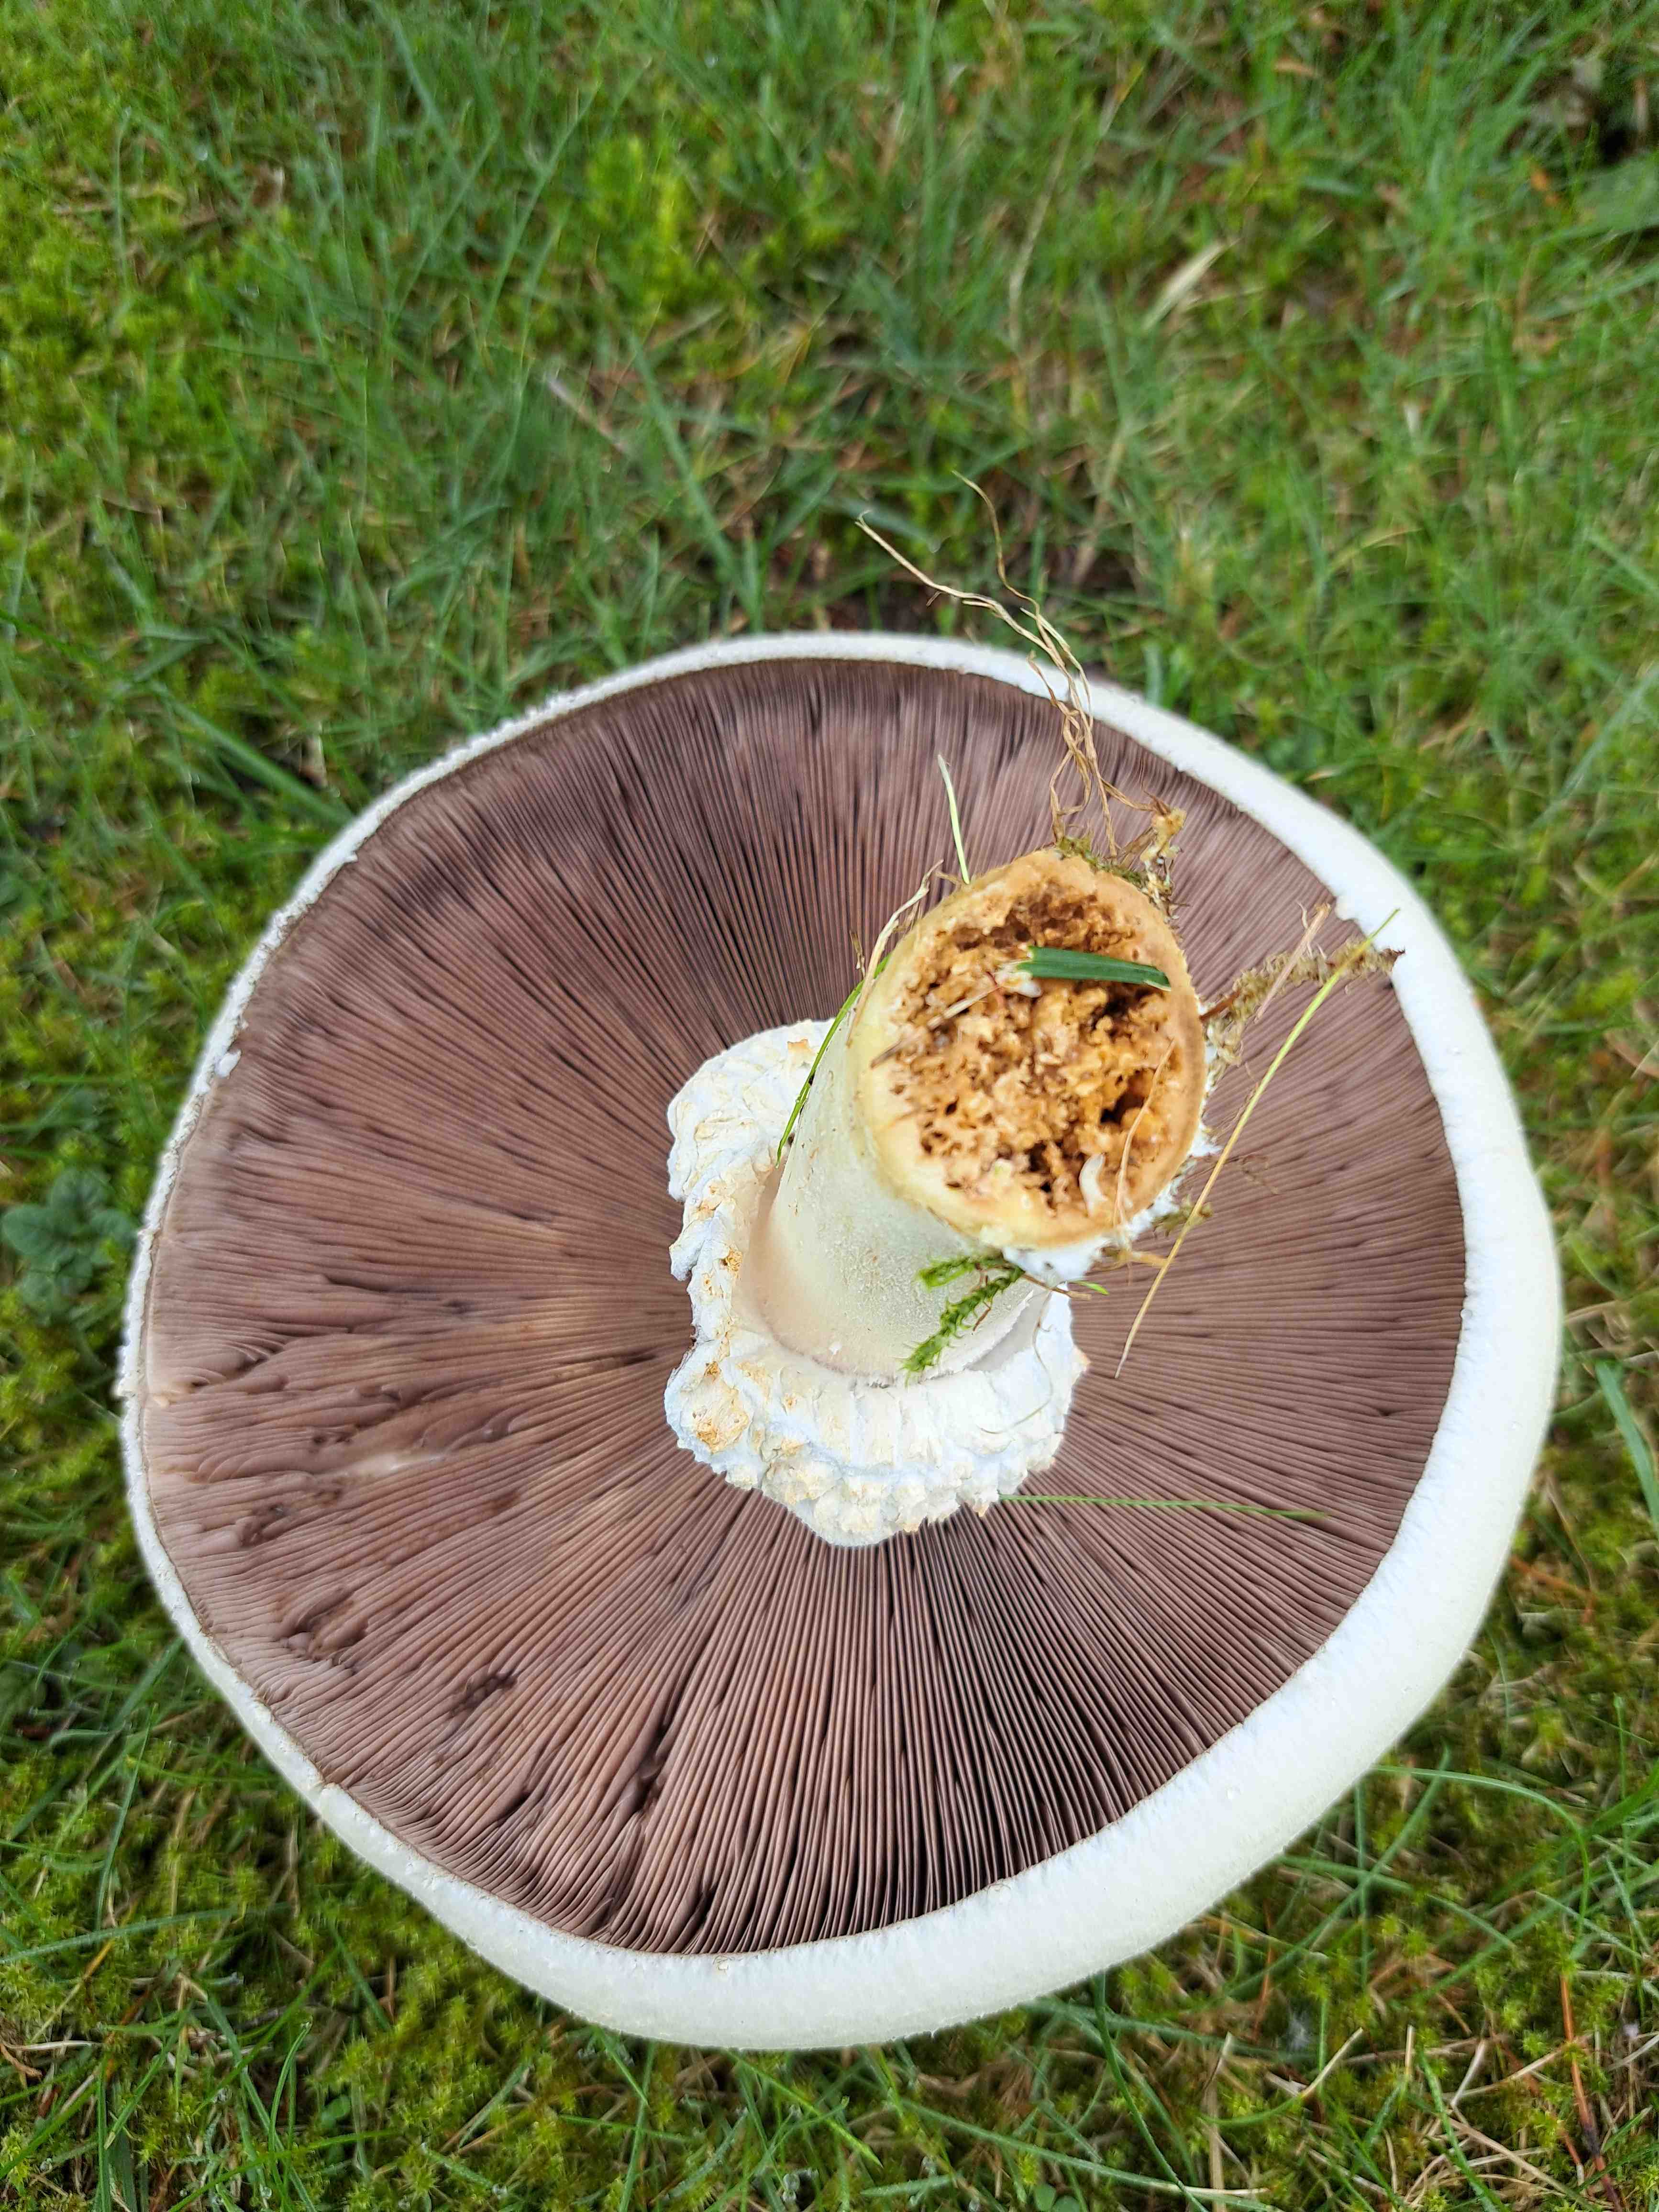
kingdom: Fungi
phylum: Basidiomycota
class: Agaricomycetes
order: Agaricales
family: Agaricaceae
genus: Agaricus
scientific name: Agaricus
